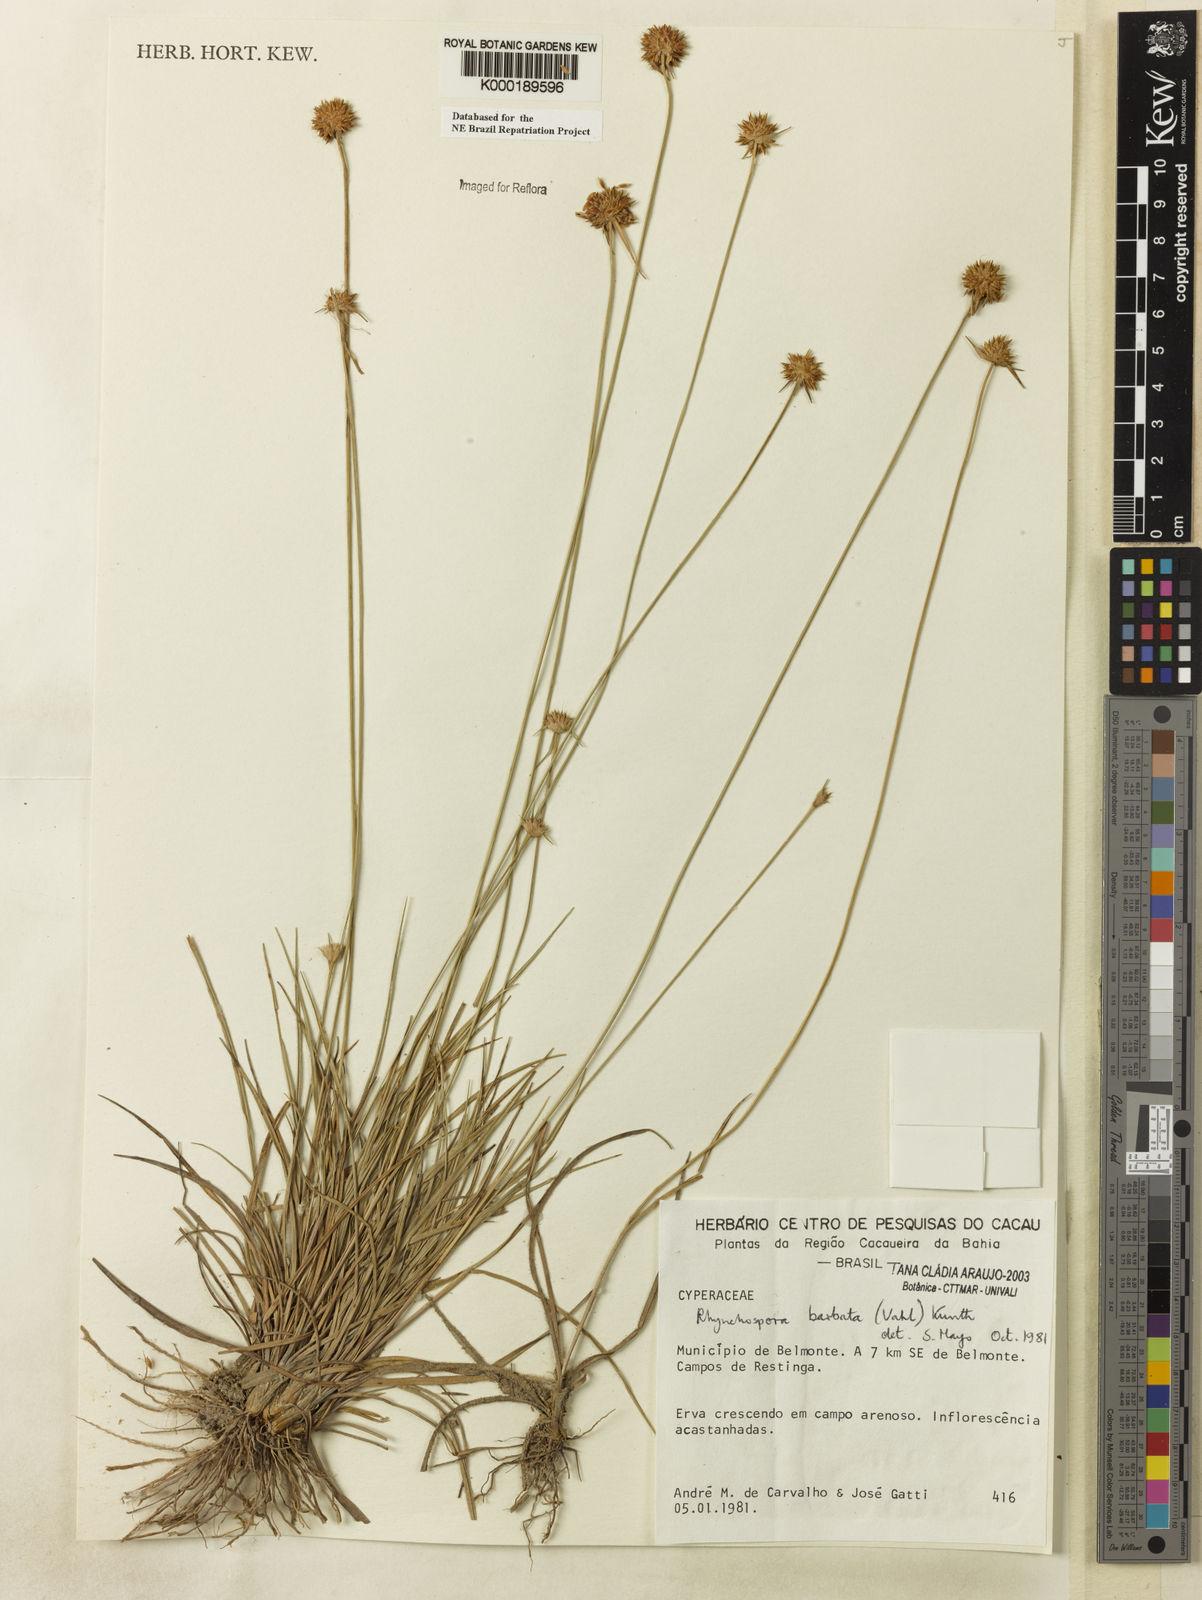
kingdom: Plantae
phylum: Tracheophyta
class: Liliopsida
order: Poales
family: Cyperaceae
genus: Rhynchospora
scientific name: Rhynchospora barbata
